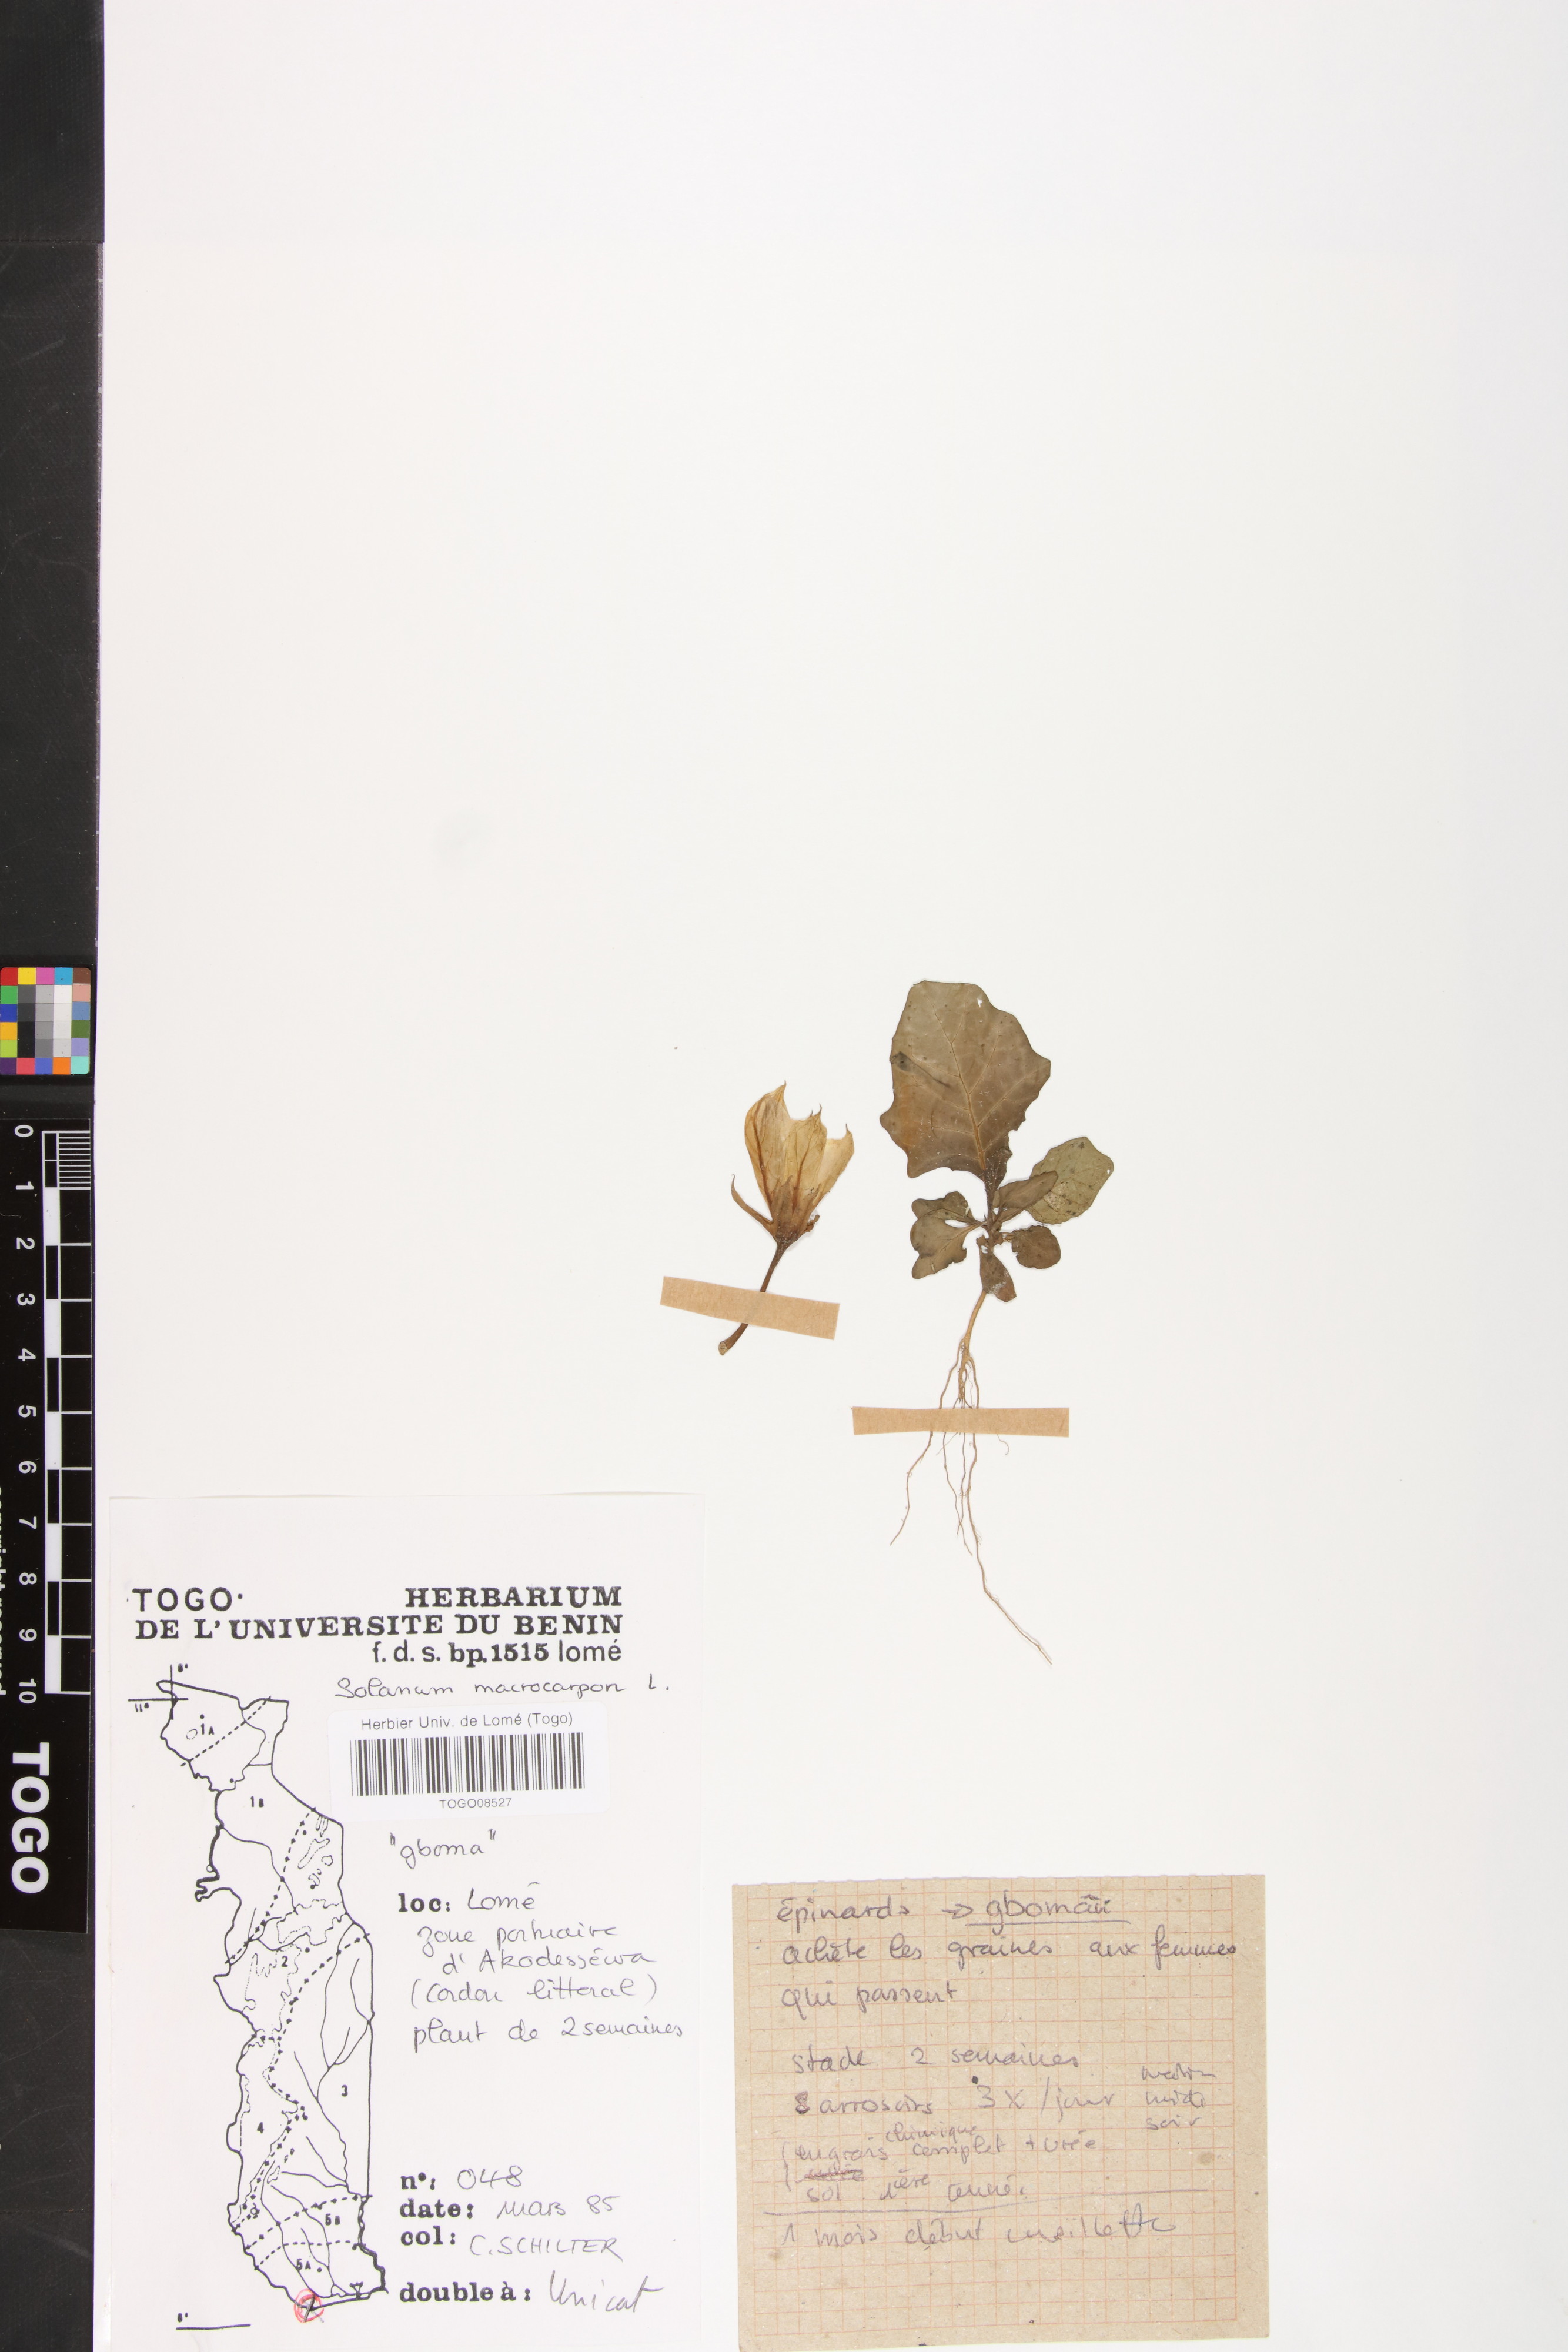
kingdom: Plantae
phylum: Tracheophyta
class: Magnoliopsida
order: Solanales
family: Solanaceae
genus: Solanum
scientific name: Solanum macrocarpon
